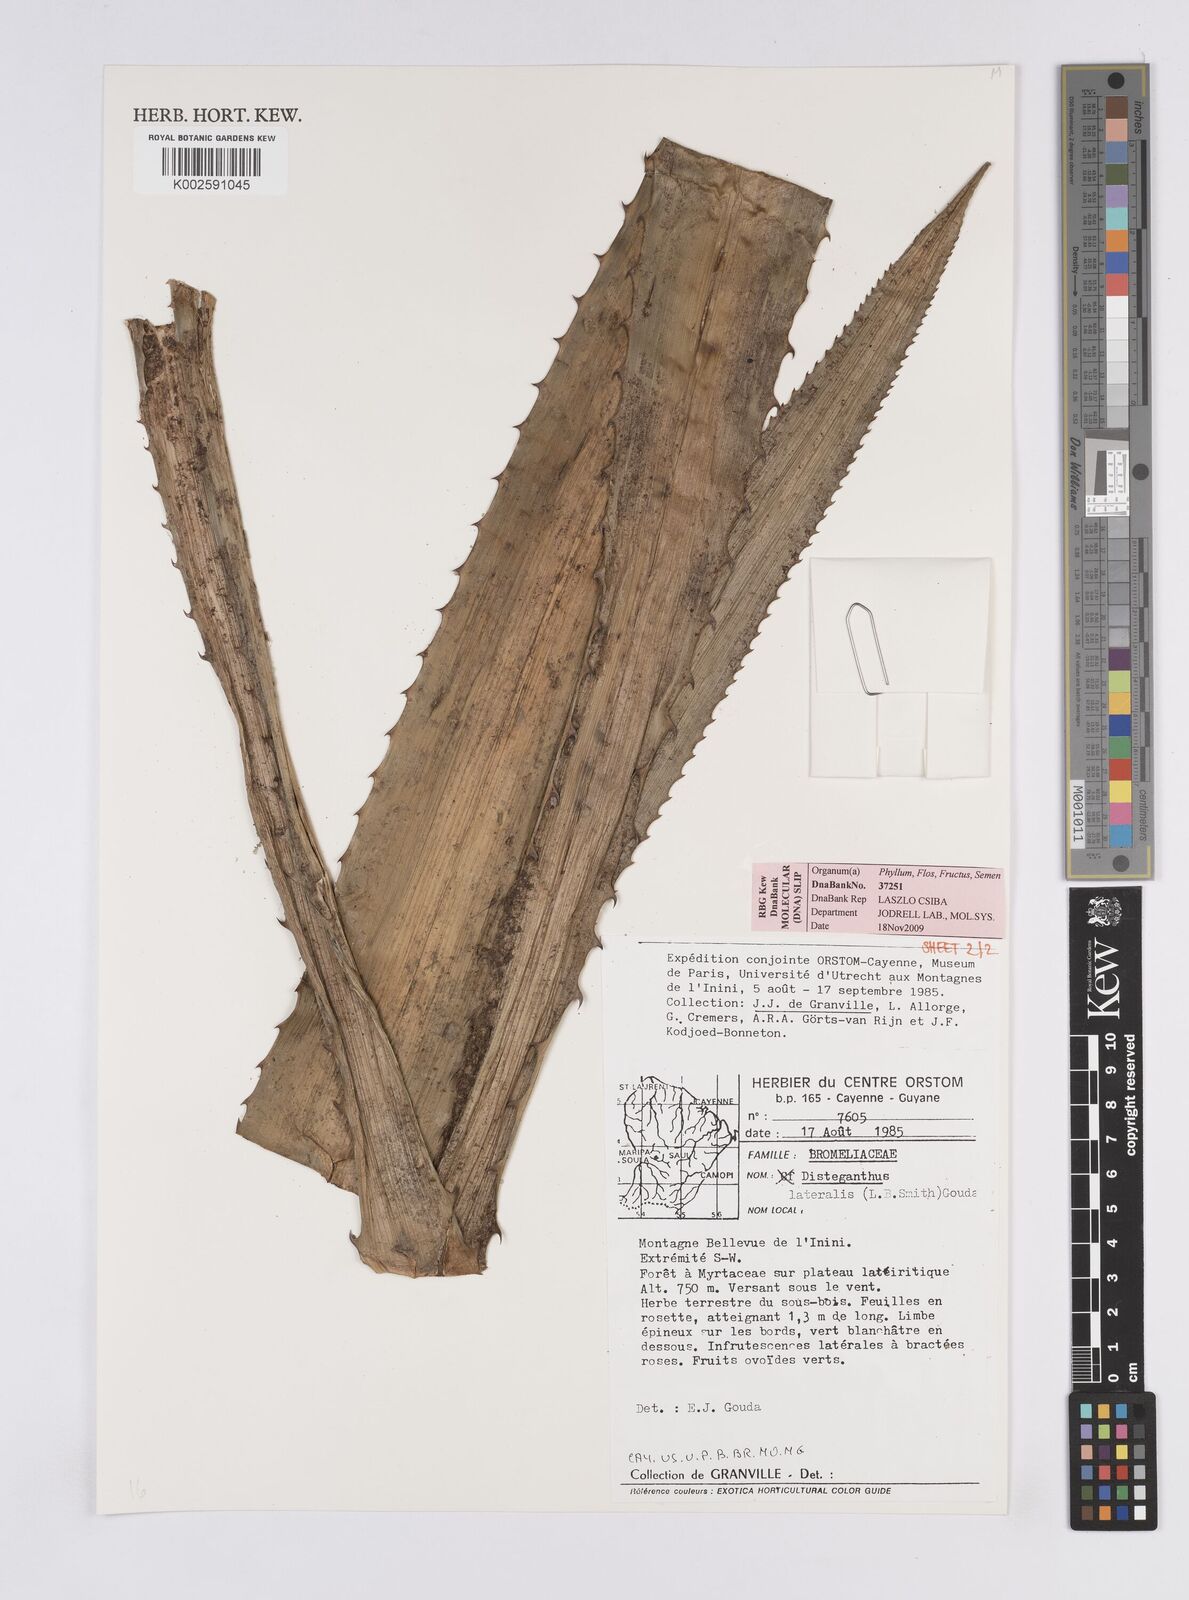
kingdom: Plantae
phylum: Tracheophyta
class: Liliopsida
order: Poales
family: Bromeliaceae
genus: Disteganthus
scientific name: Disteganthus lateralis
